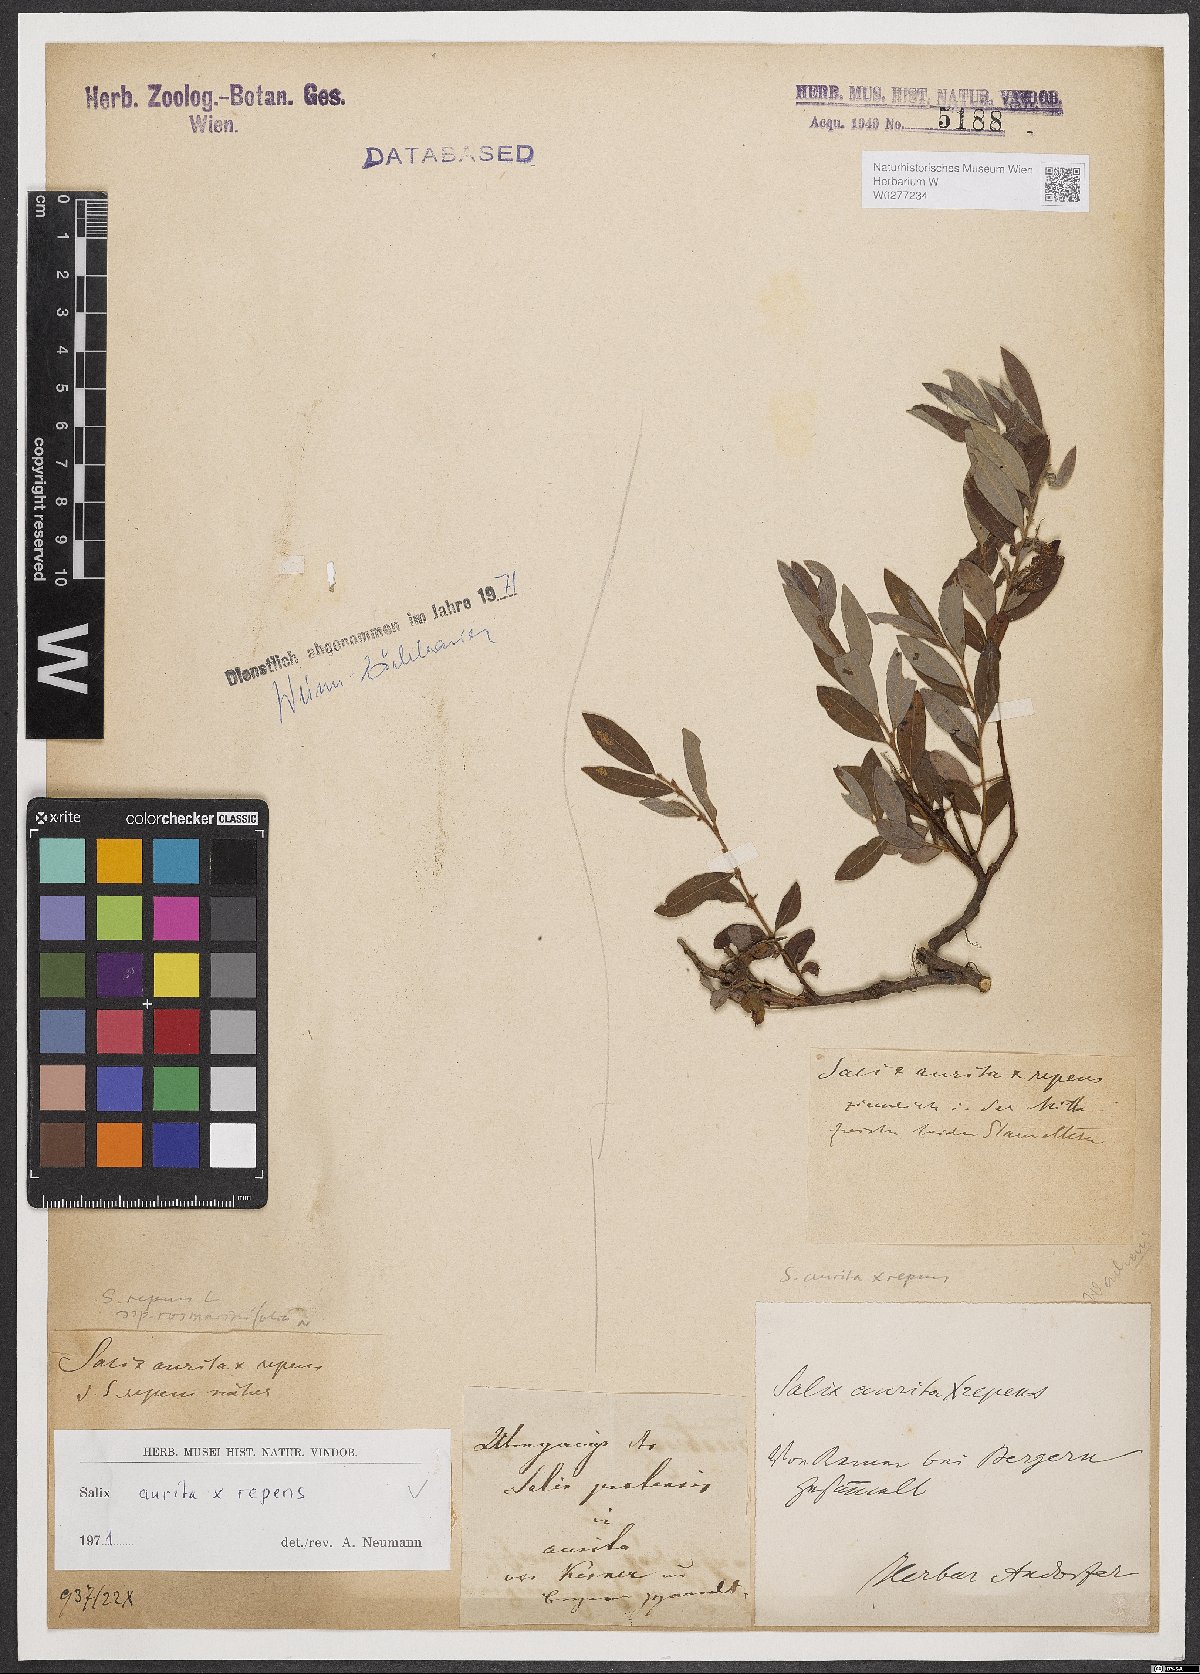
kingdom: Plantae
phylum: Tracheophyta
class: Magnoliopsida
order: Malpighiales
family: Salicaceae
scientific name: Salicaceae
